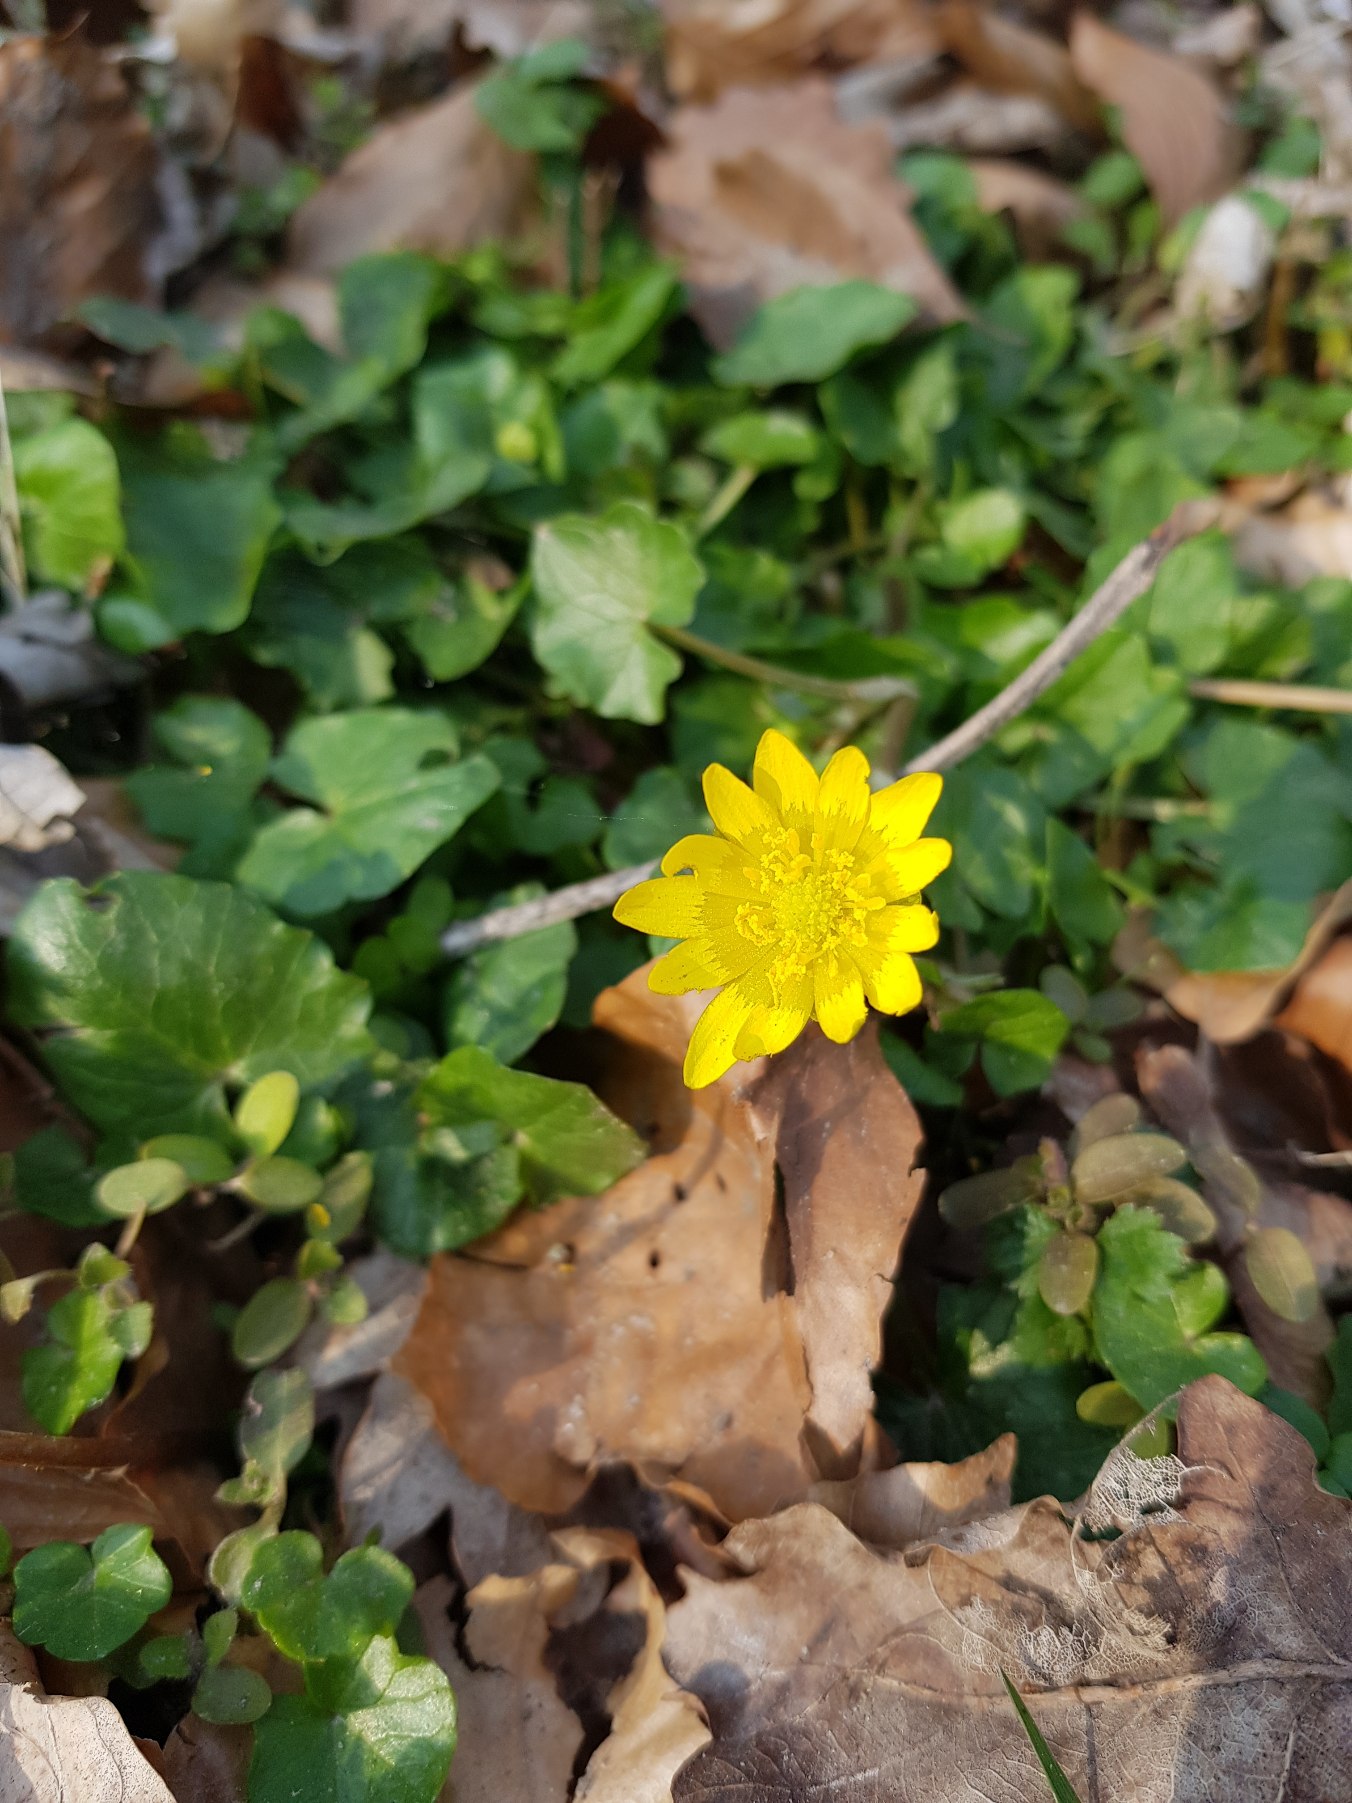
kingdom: Plantae
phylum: Tracheophyta
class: Magnoliopsida
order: Ranunculales
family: Ranunculaceae
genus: Ficaria
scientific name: Ficaria verna
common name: Vorterod
